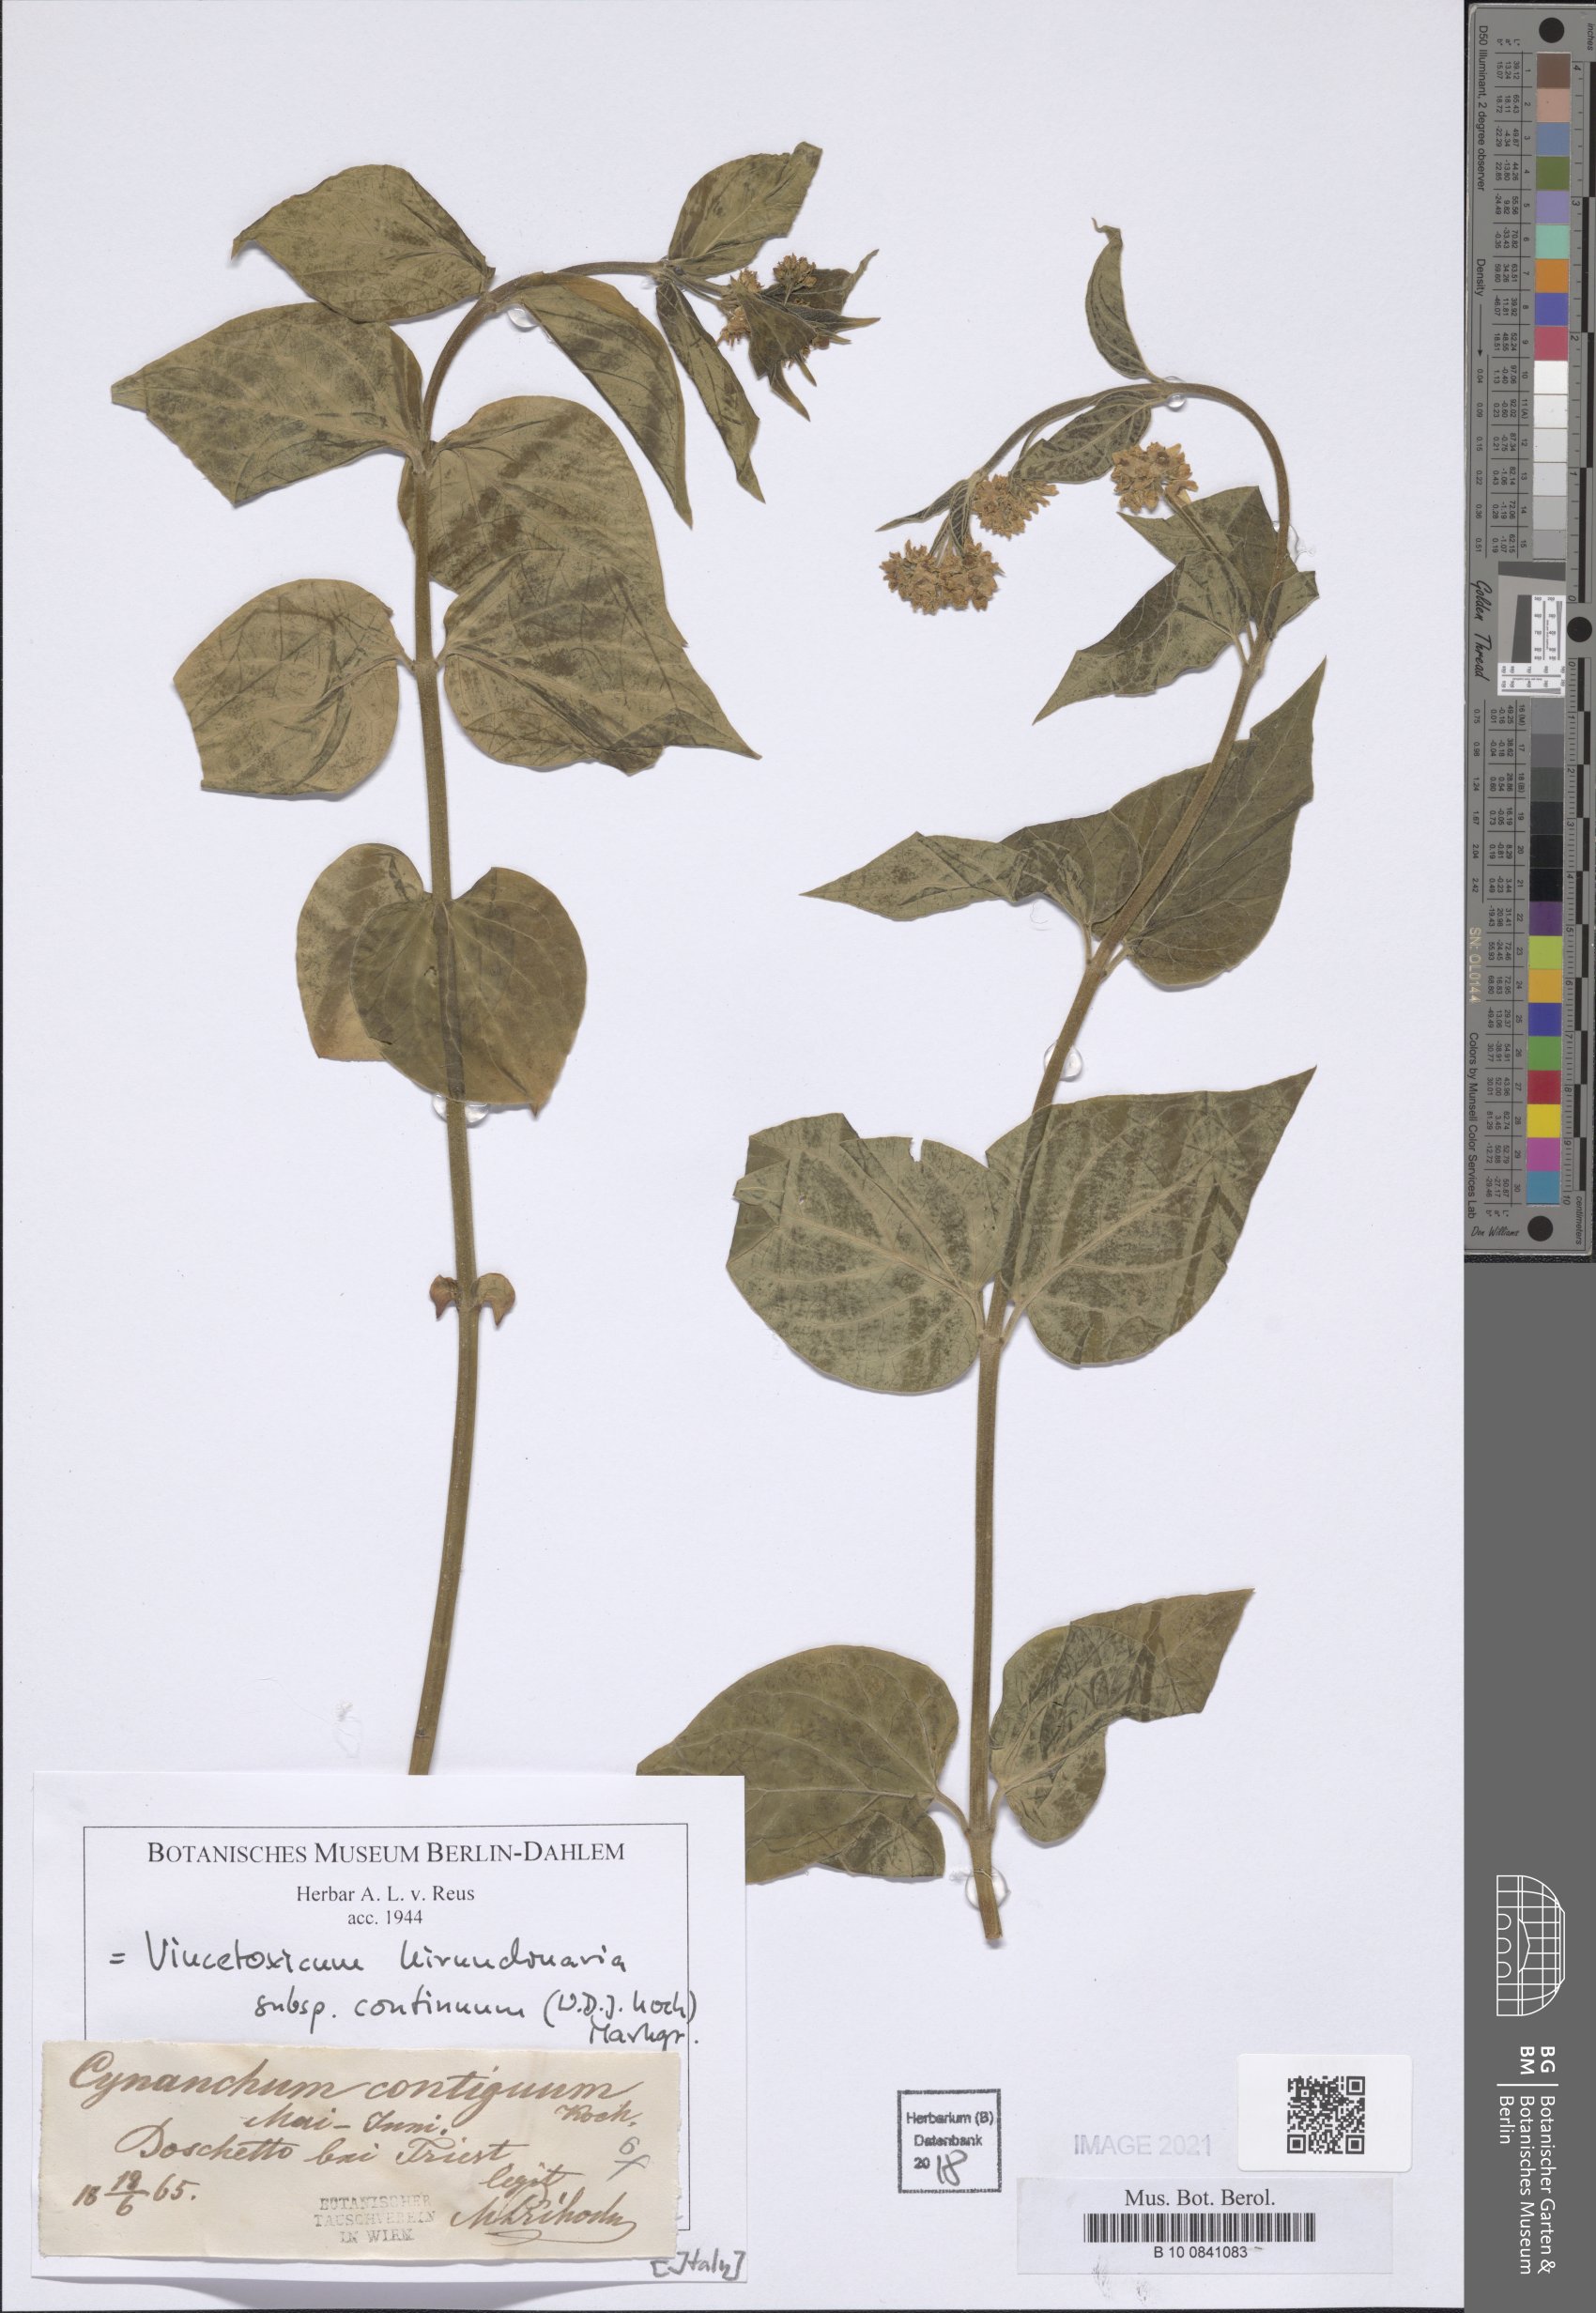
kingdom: Plantae
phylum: Tracheophyta
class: Magnoliopsida
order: Gentianales
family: Apocynaceae
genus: Vincetoxicum
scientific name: Vincetoxicum hirundinaria
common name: White swallowwort
